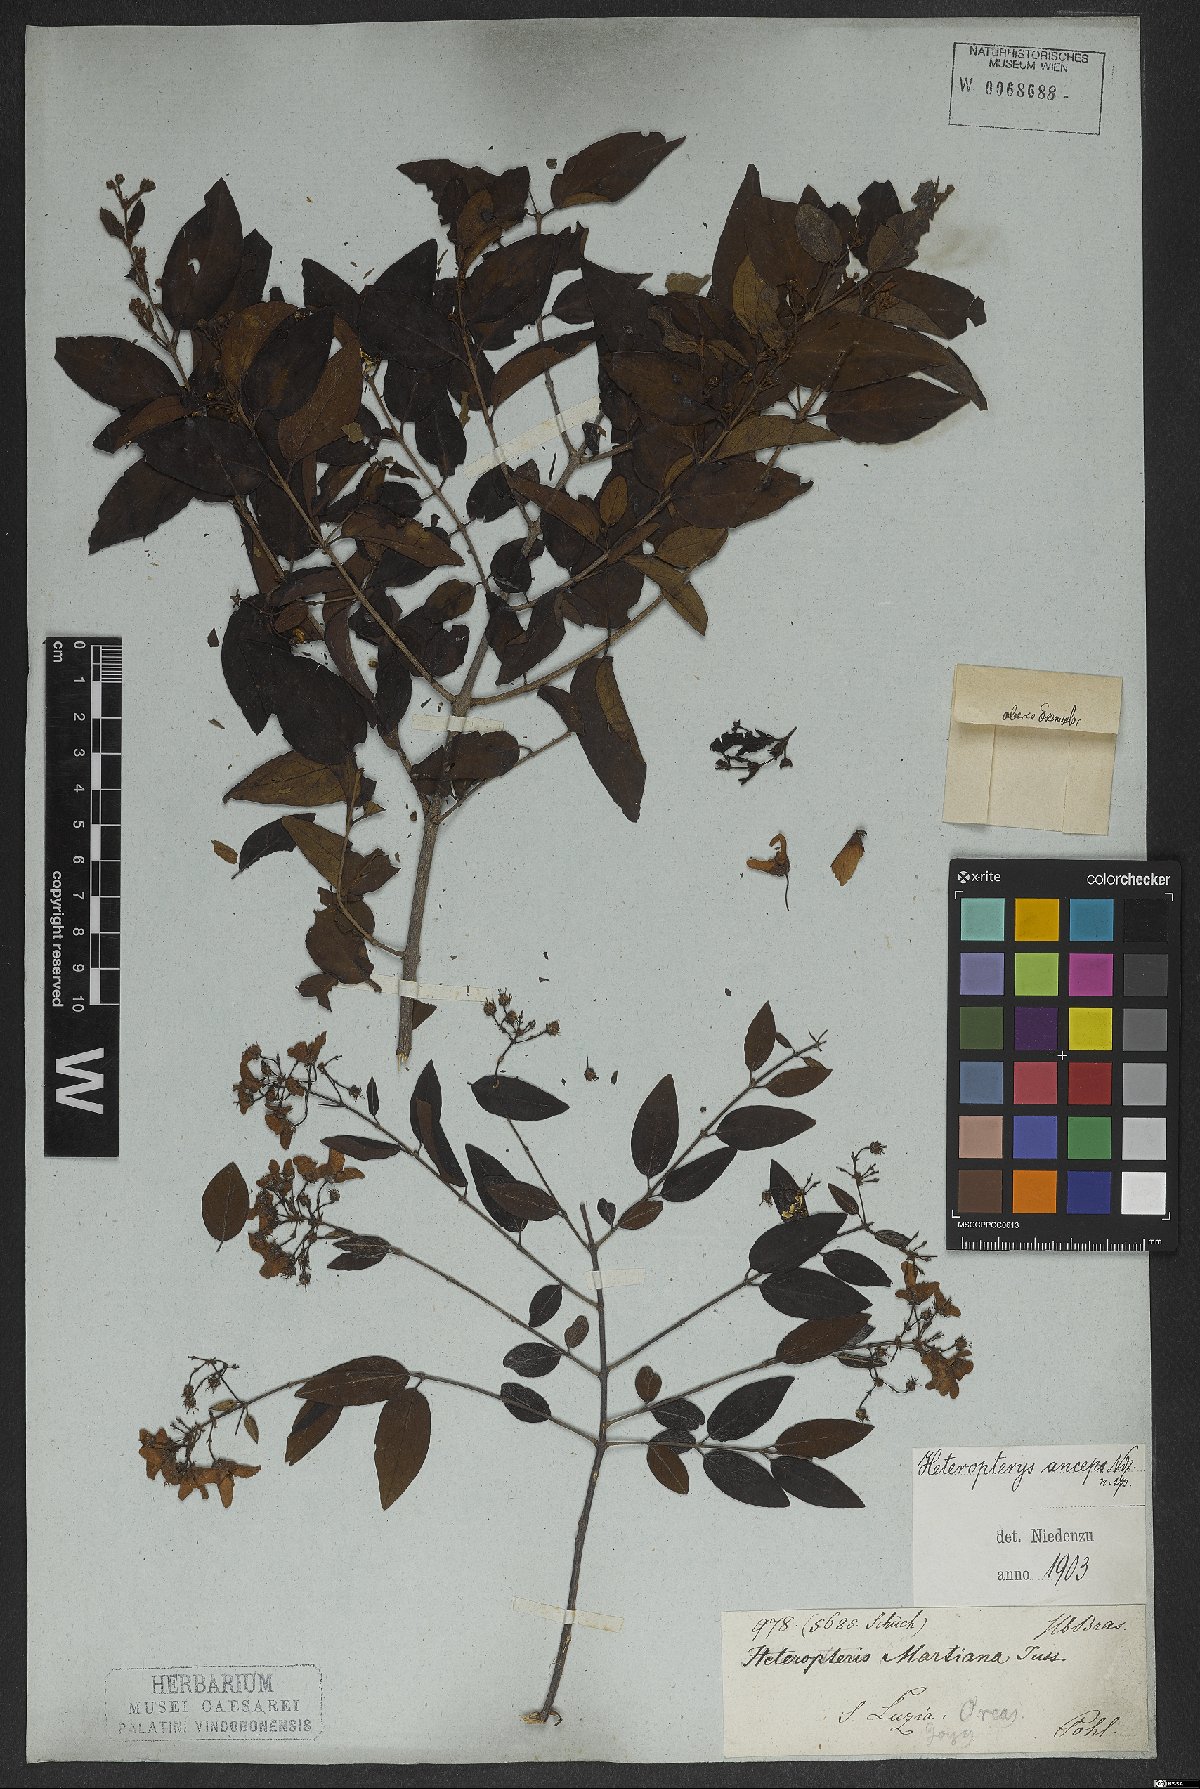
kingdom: Plantae
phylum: Tracheophyta
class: Magnoliopsida
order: Malpighiales
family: Malpighiaceae
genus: Heteropterys
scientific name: Heteropterys banksiifolia
